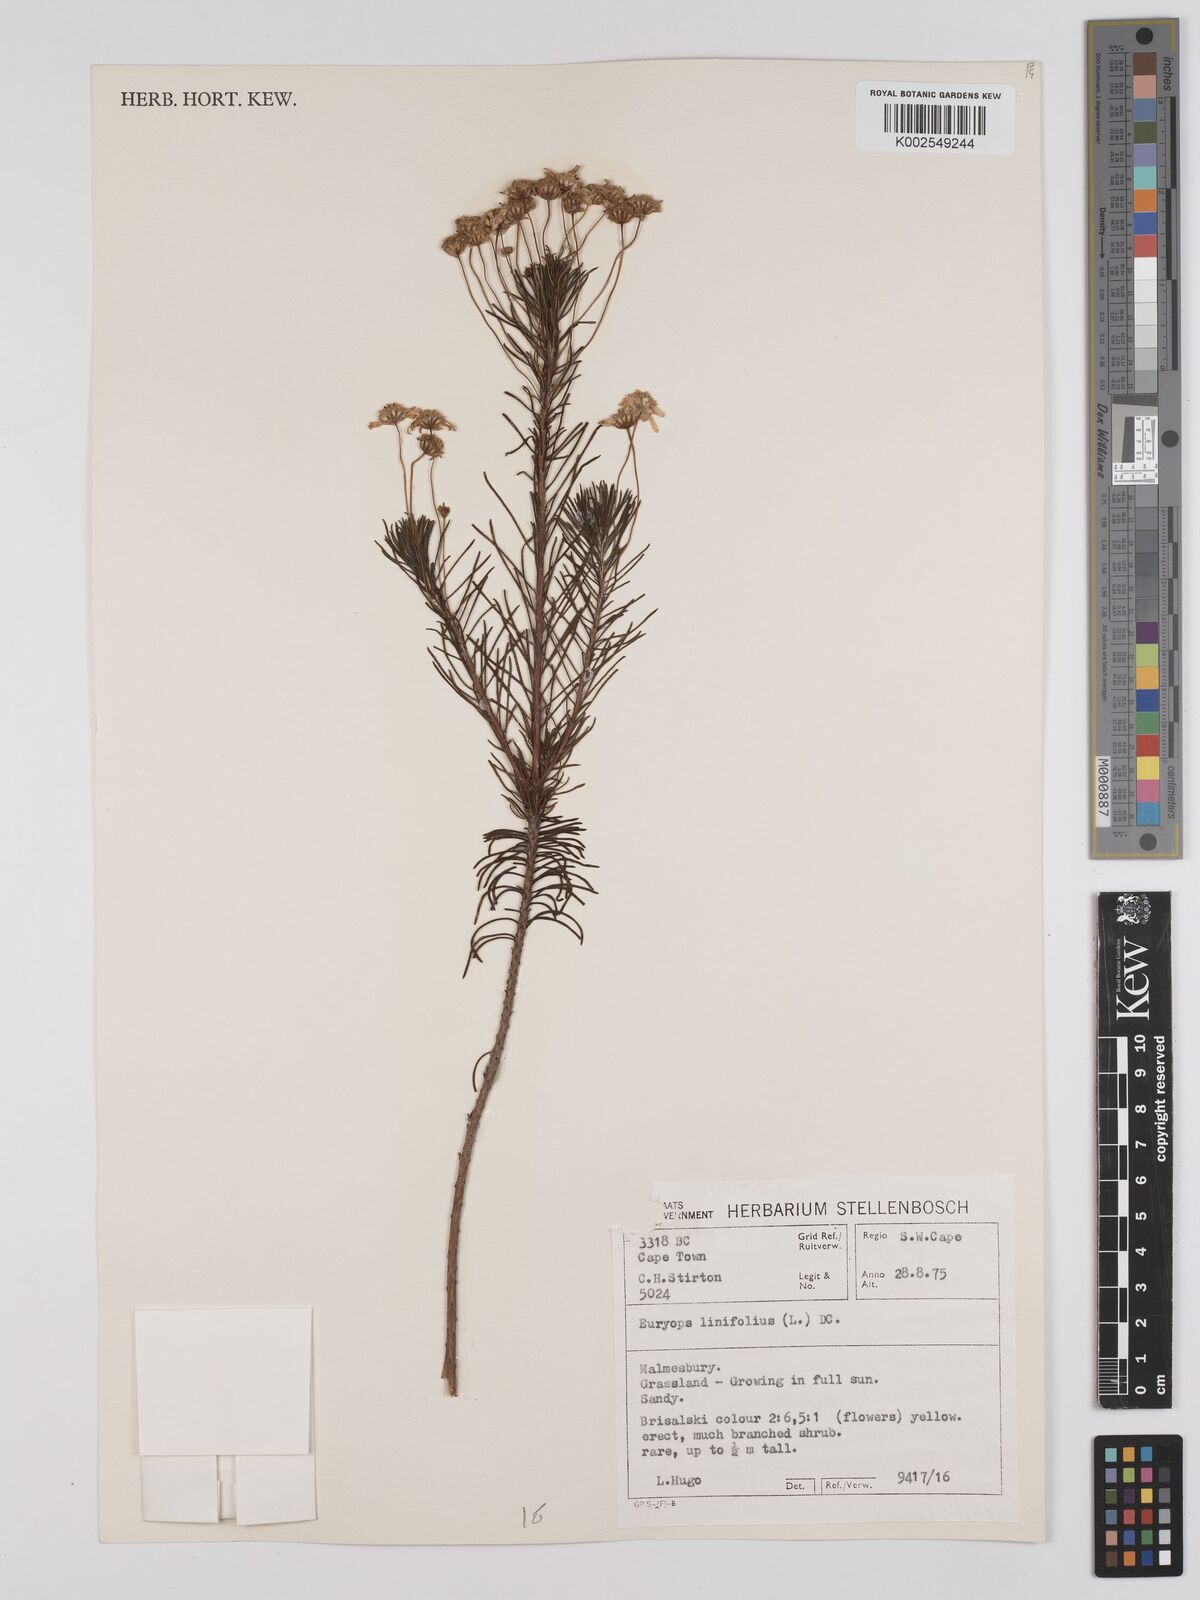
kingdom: Plantae
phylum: Tracheophyta
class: Magnoliopsida
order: Asterales
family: Asteraceae
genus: Euryops
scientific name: Euryops linifolius
